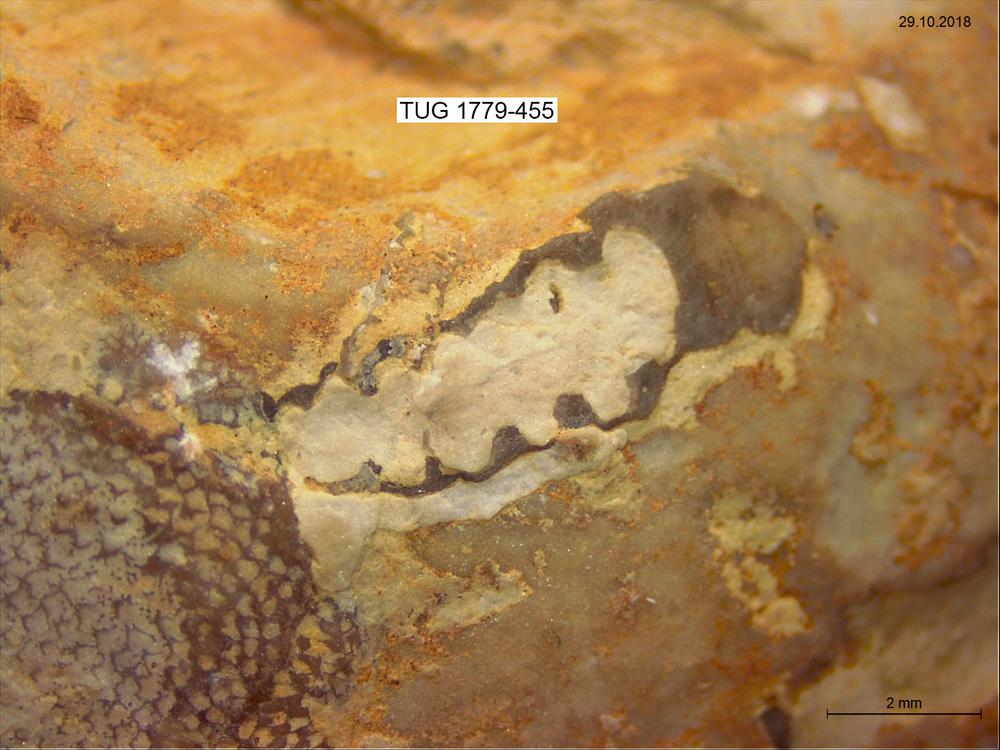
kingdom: Animalia
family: Cornulitidae
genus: Cornulites
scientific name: Cornulites
